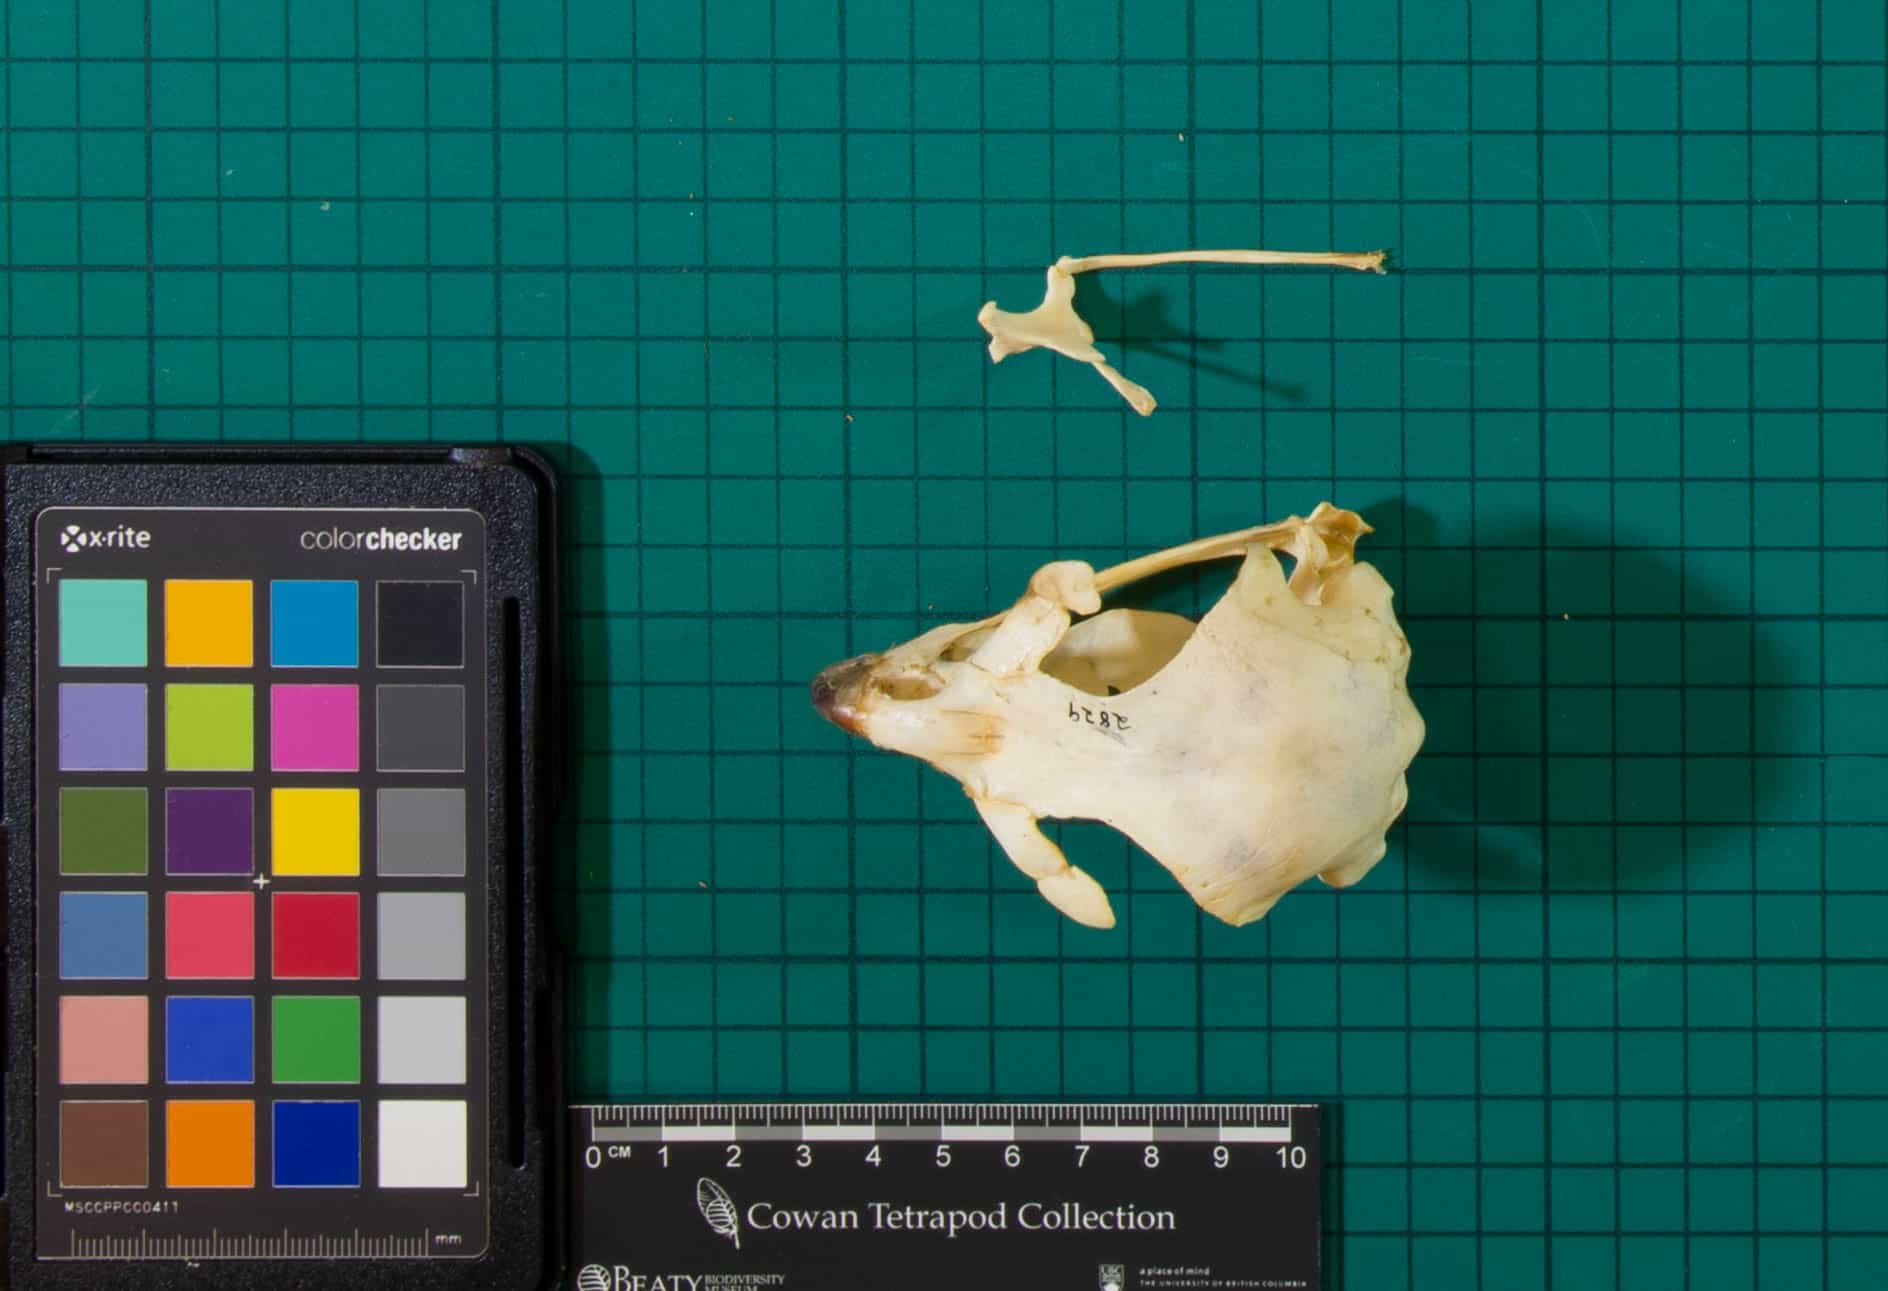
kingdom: Animalia
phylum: Chordata
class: Aves
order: Accipitriformes
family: Accipitridae
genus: Buteo
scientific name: Buteo regalis
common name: Ferruginous Hawk
